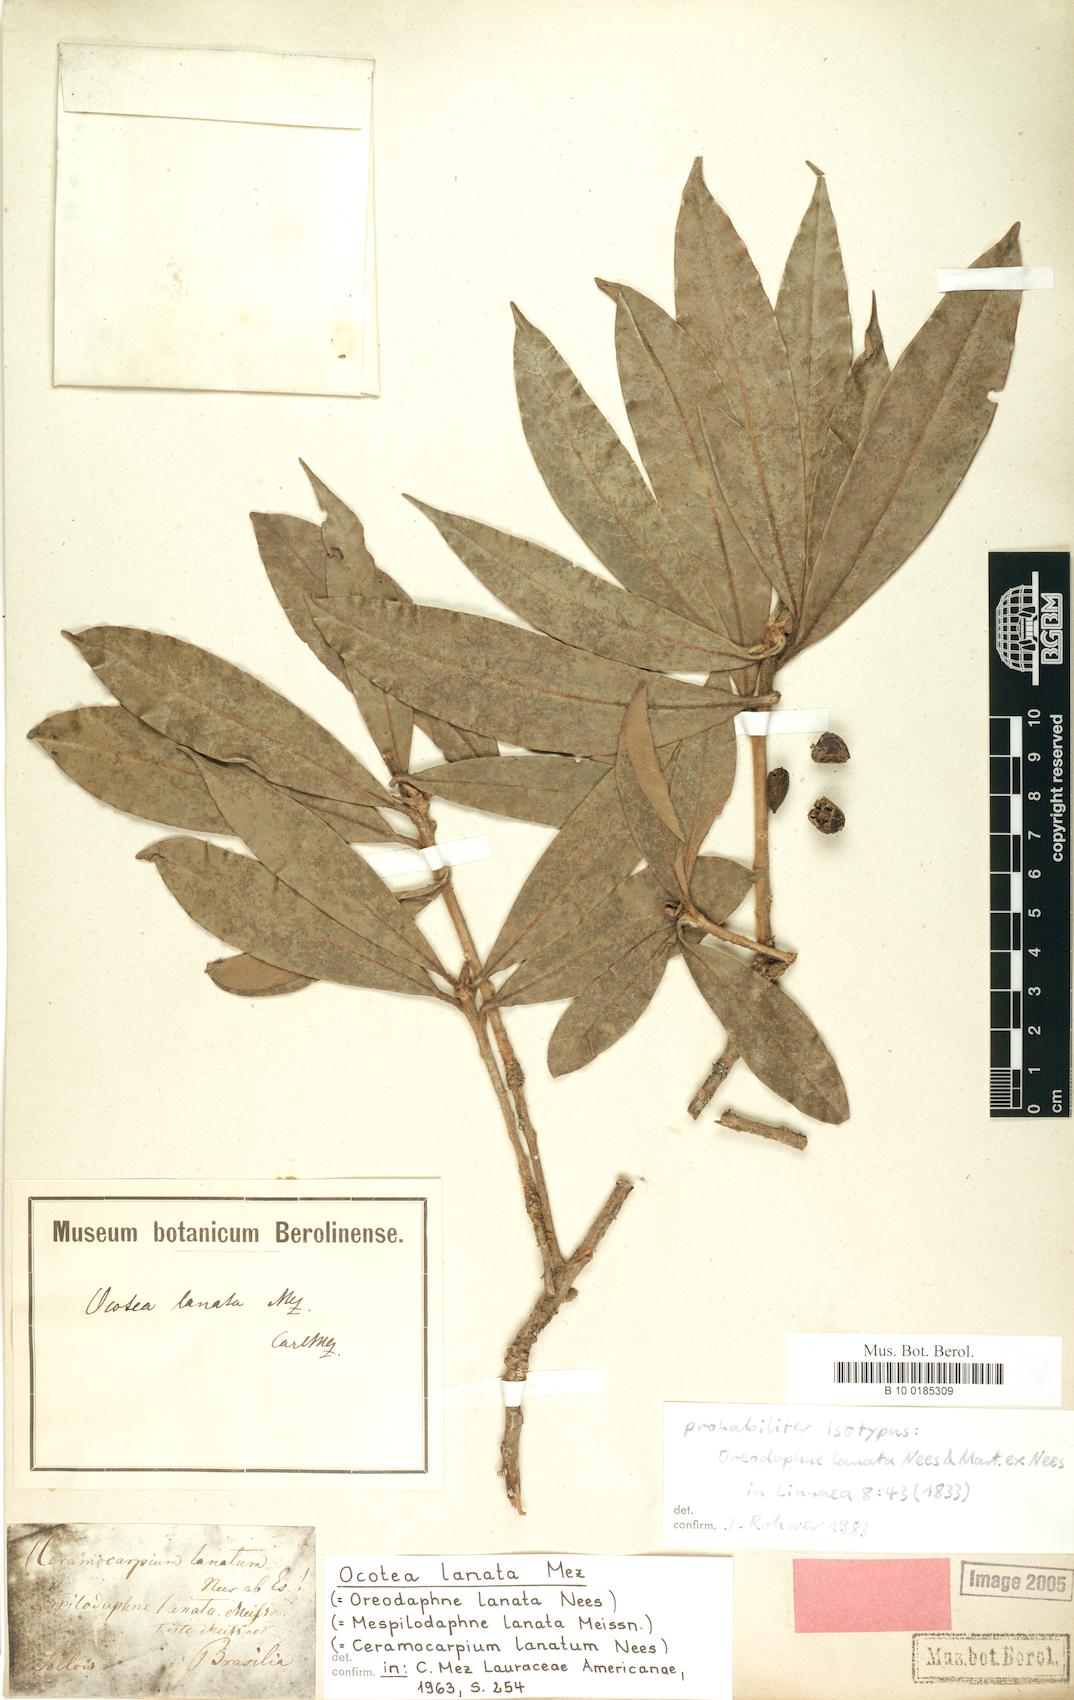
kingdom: Plantae
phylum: Tracheophyta
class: Magnoliopsida
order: Laurales
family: Lauraceae
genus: Ocotea
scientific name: Ocotea lanata
